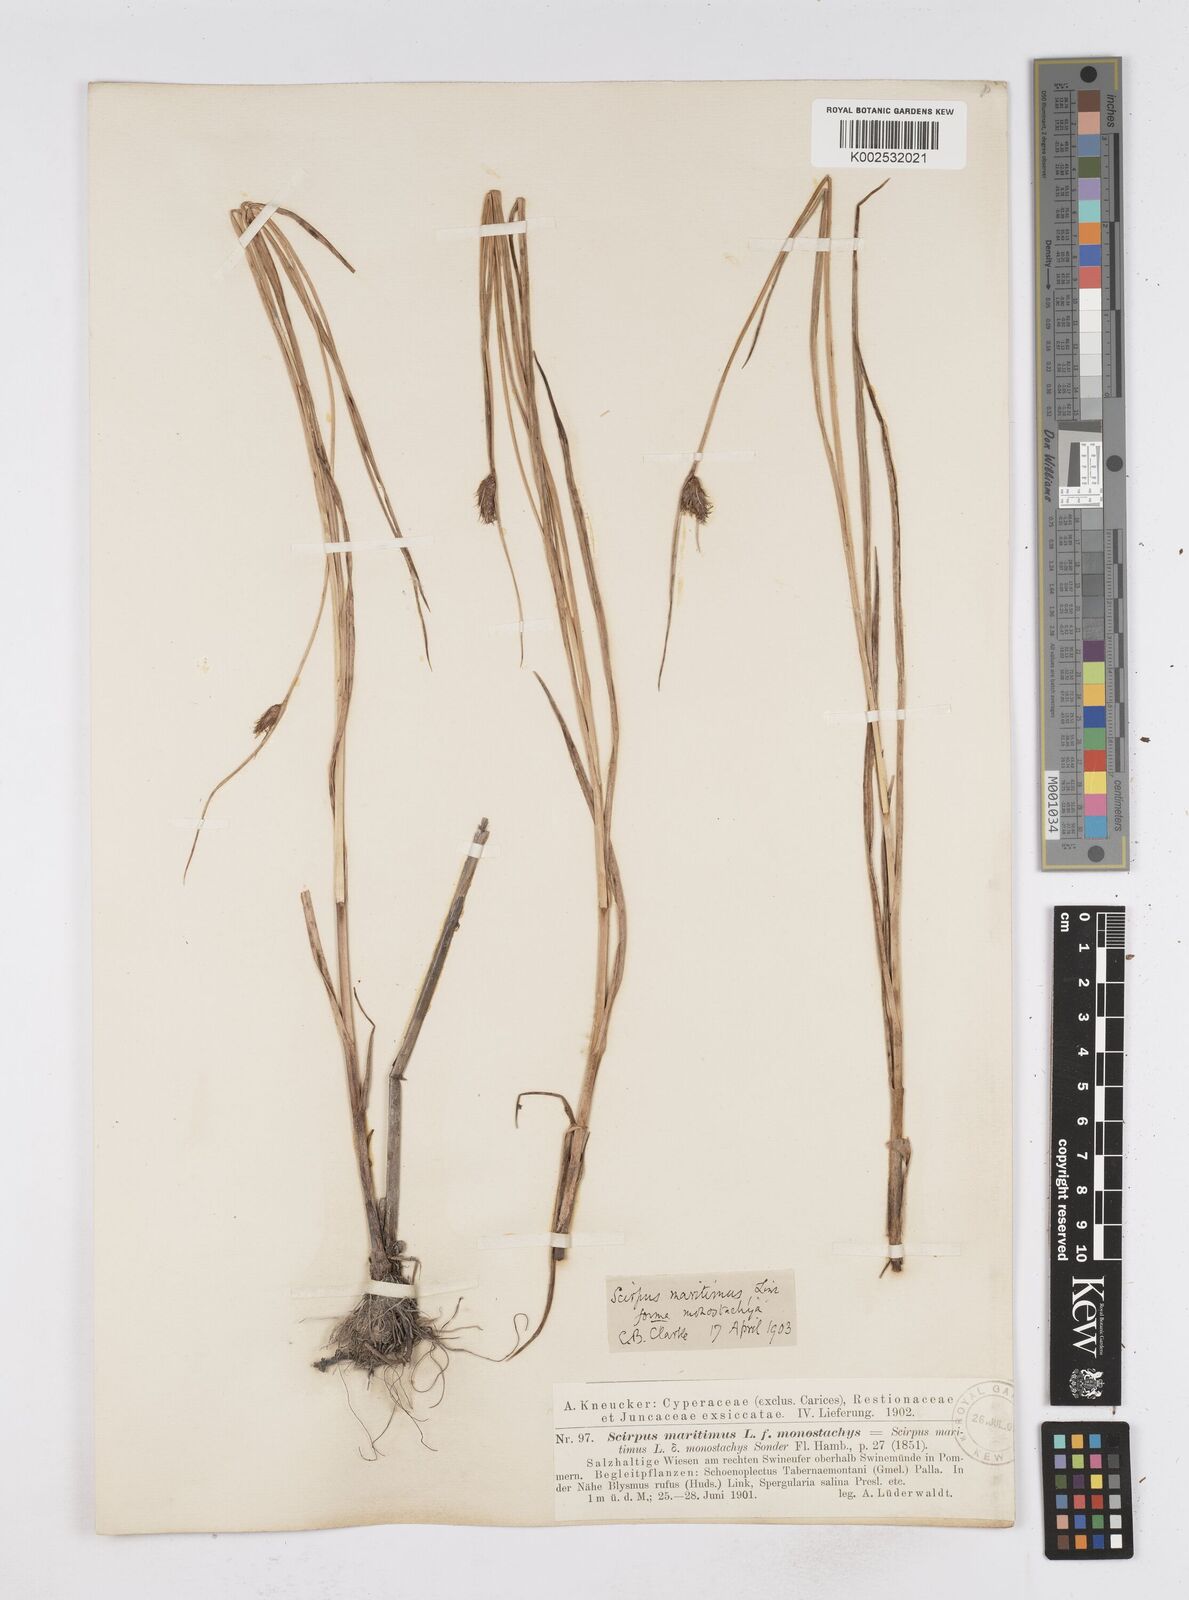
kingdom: Plantae
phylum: Tracheophyta
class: Liliopsida
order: Poales
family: Cyperaceae
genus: Bolboschoenus
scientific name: Bolboschoenus maritimus
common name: Sea club-rush
